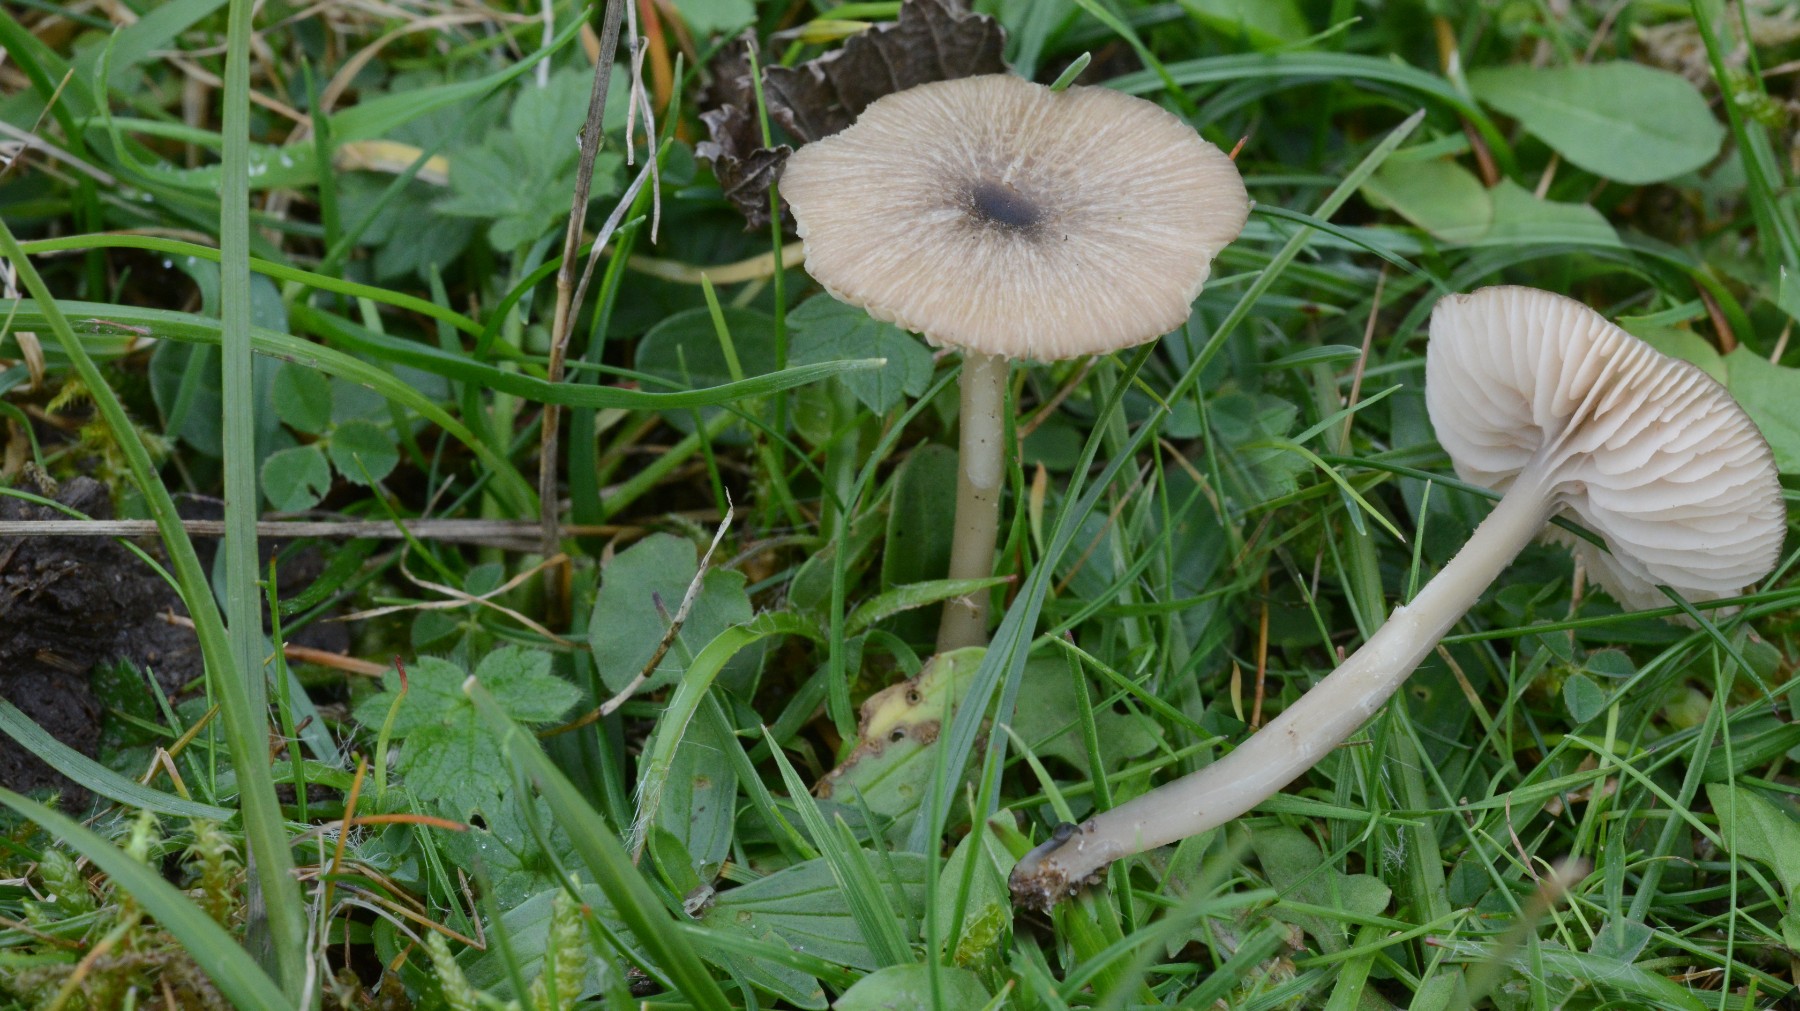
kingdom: Fungi
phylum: Basidiomycota
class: Agaricomycetes
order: Agaricales
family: Entolomataceae
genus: Entoloma
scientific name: Entoloma exile
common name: rødplettet rødblad
